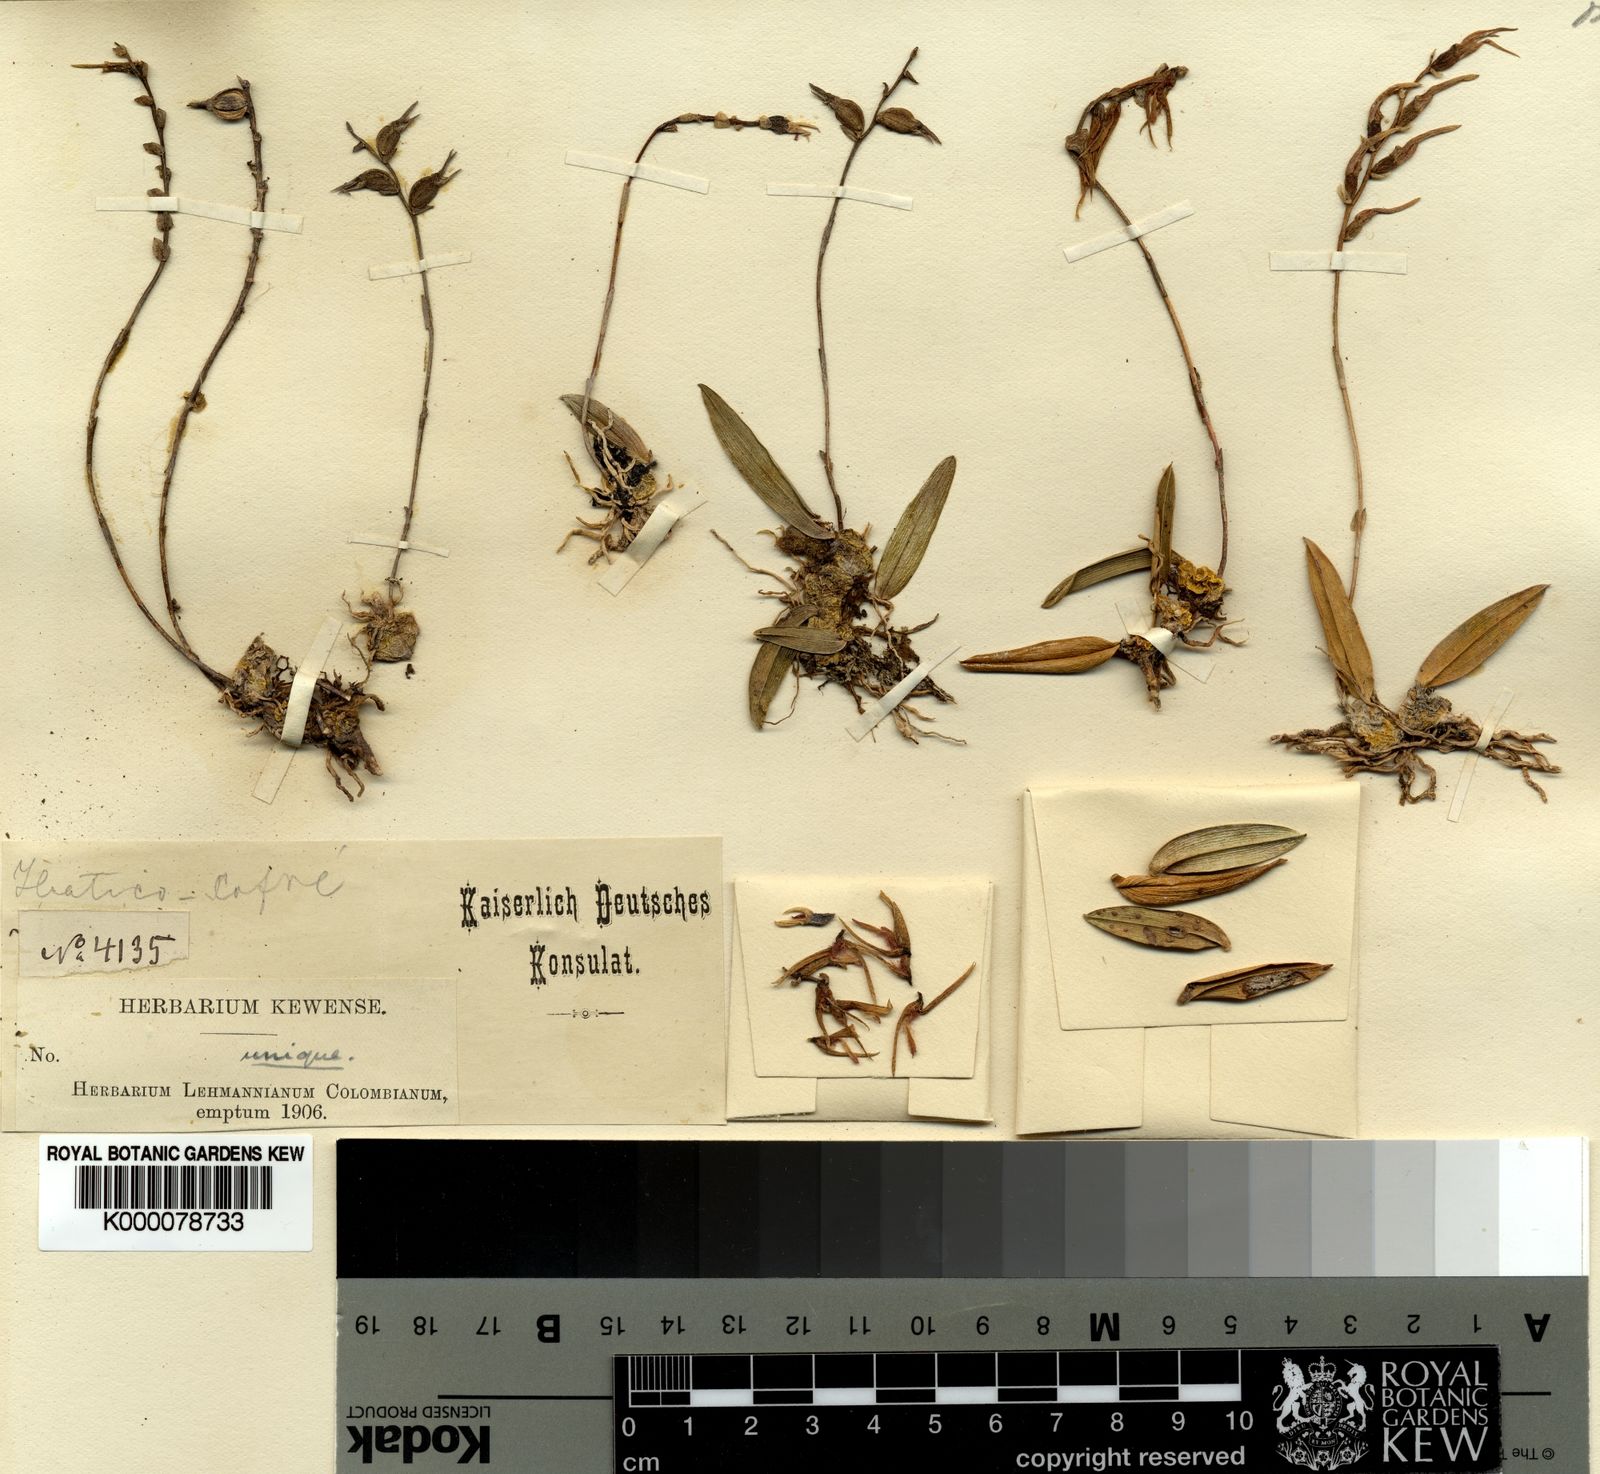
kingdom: Plantae
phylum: Tracheophyta
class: Liliopsida
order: Asparagales
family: Orchidaceae
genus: Bulbophyllum
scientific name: Bulbophyllum
